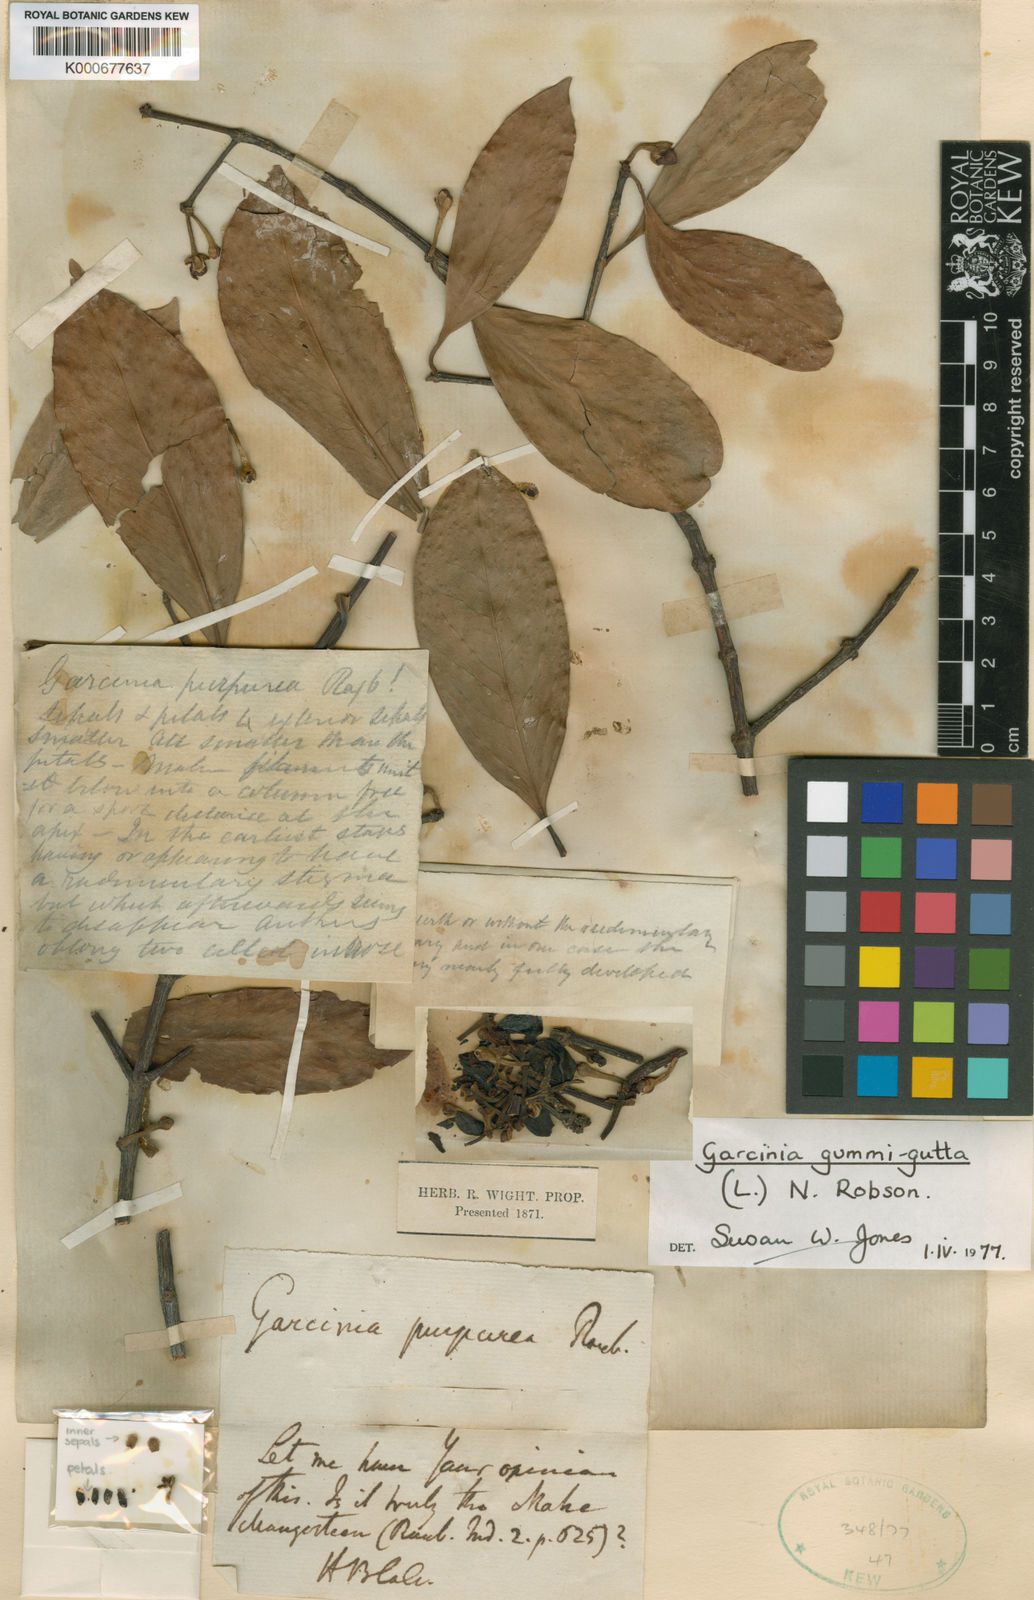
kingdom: Plantae
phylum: Tracheophyta
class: Magnoliopsida
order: Malpighiales
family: Clusiaceae
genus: Garcinia
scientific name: Garcinia
